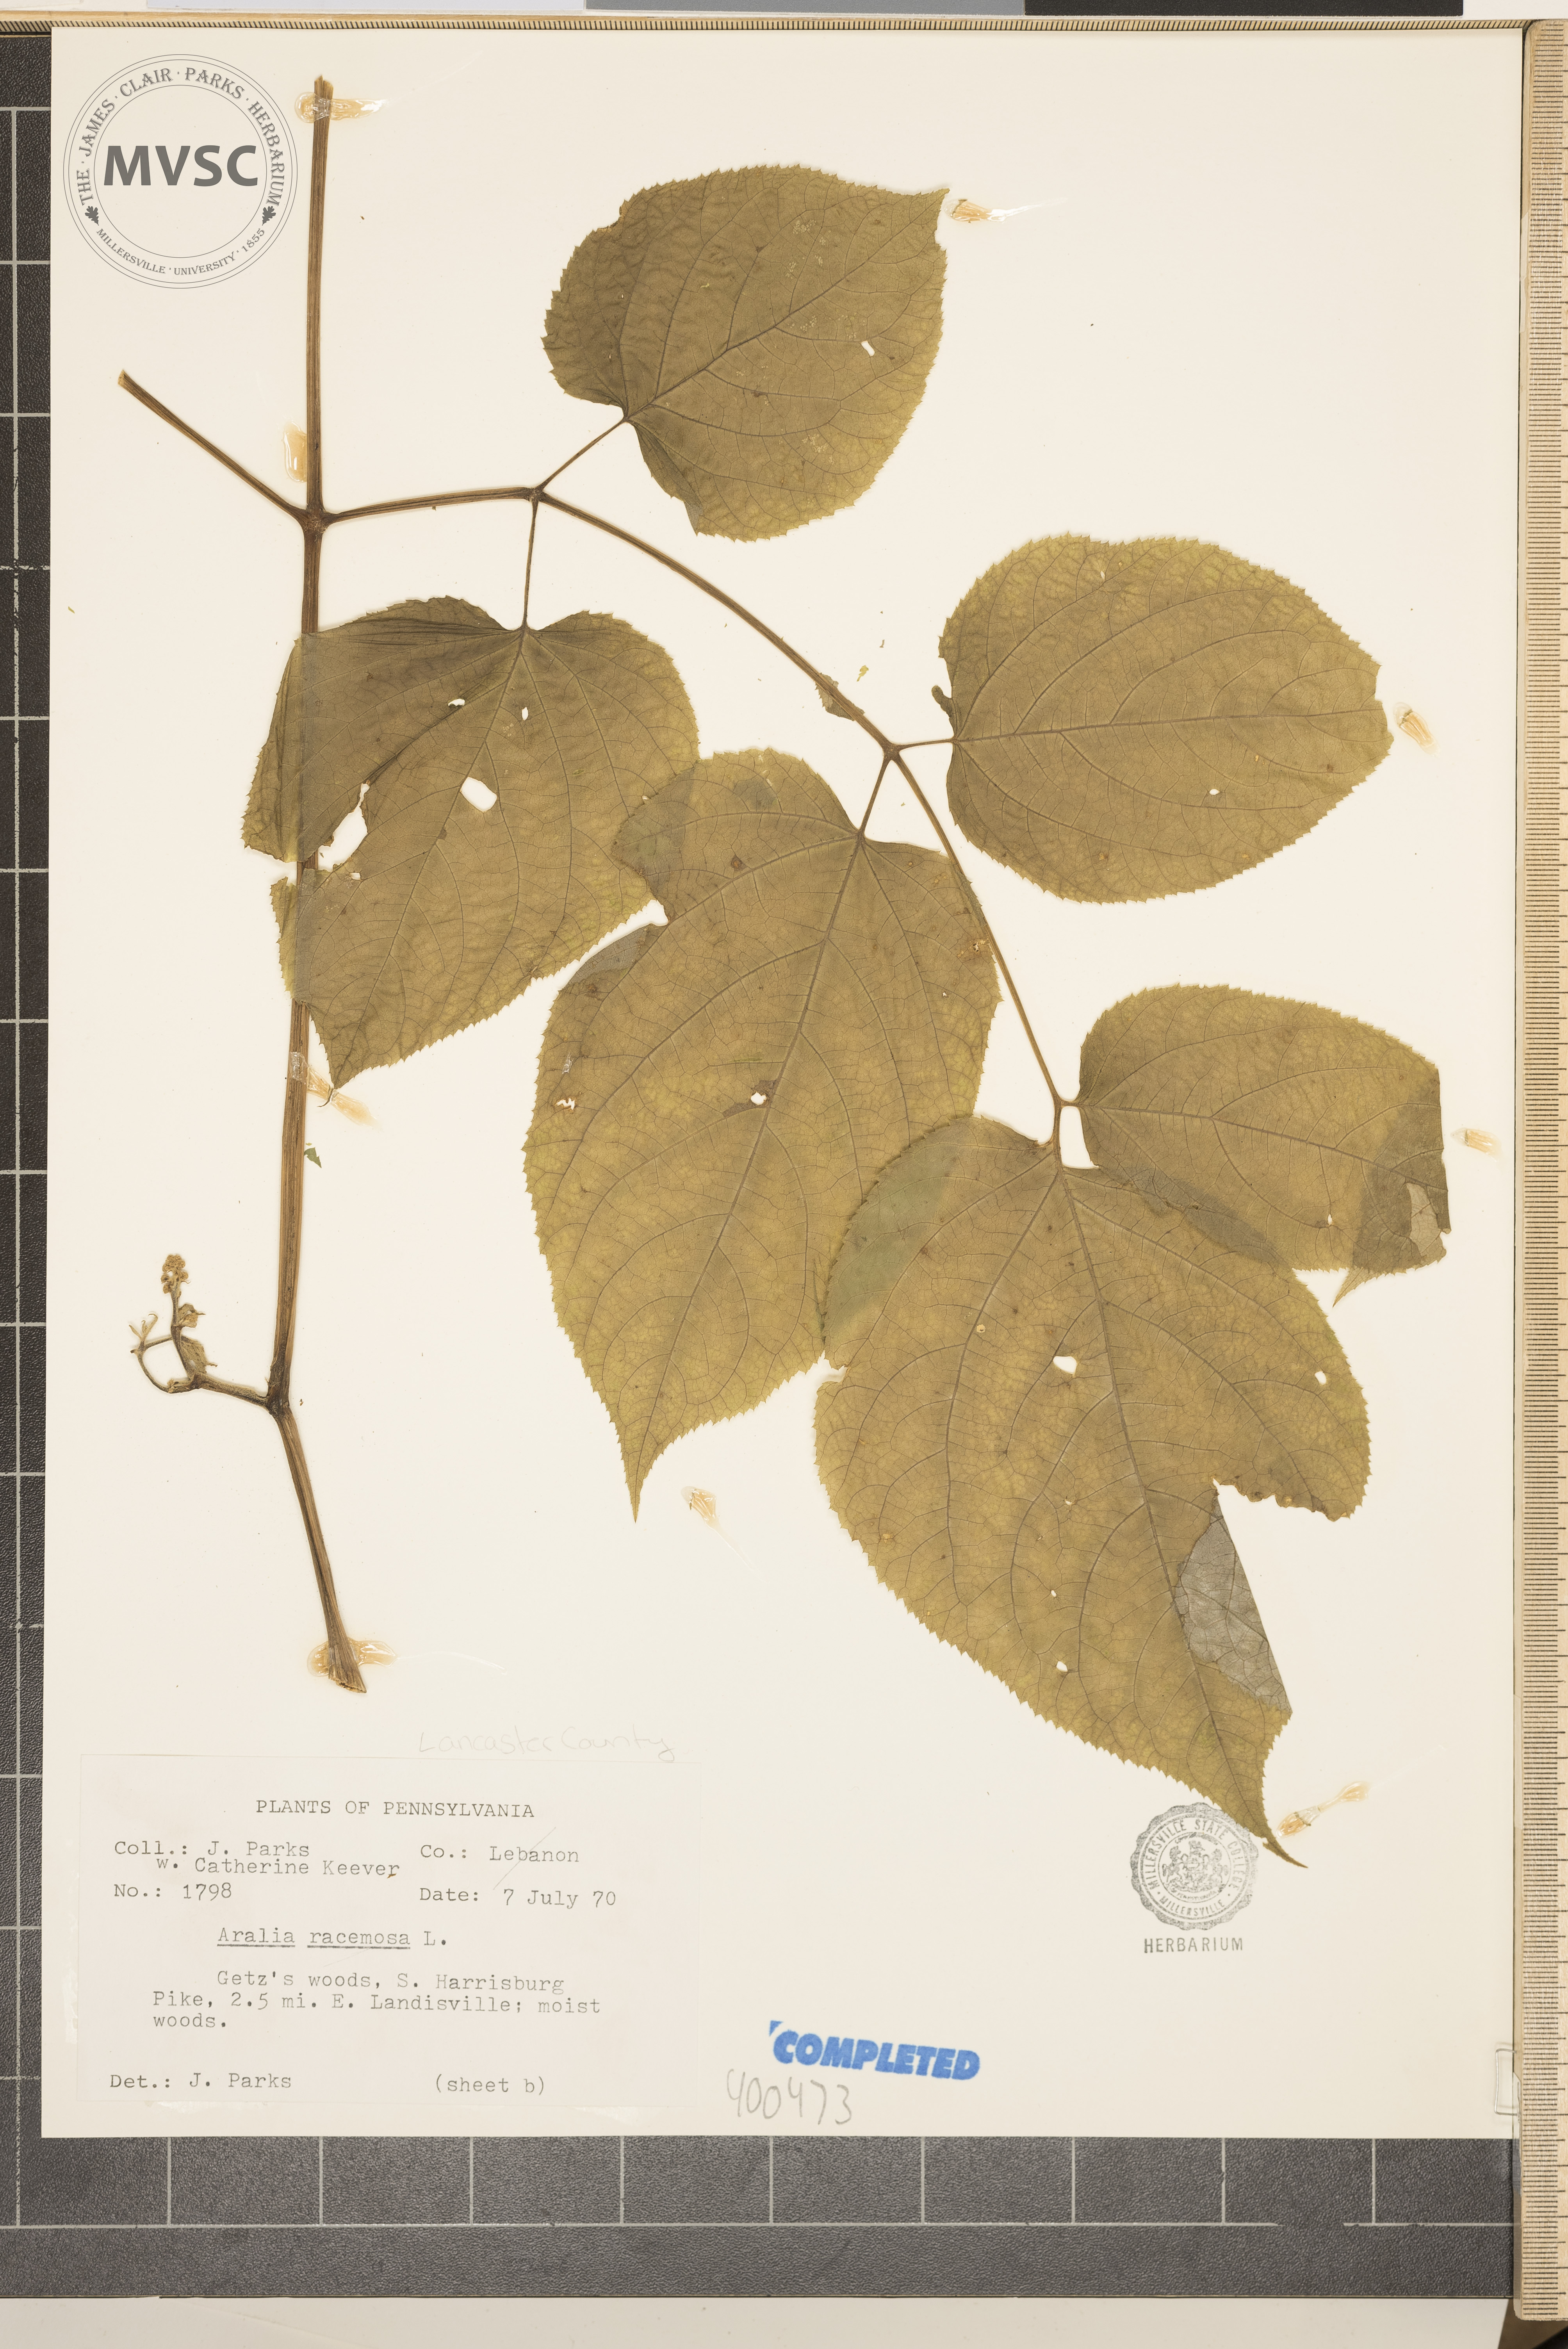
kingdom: Plantae
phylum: Tracheophyta
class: Magnoliopsida
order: Apiales
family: Araliaceae
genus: Aralia
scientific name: Aralia racemosa
